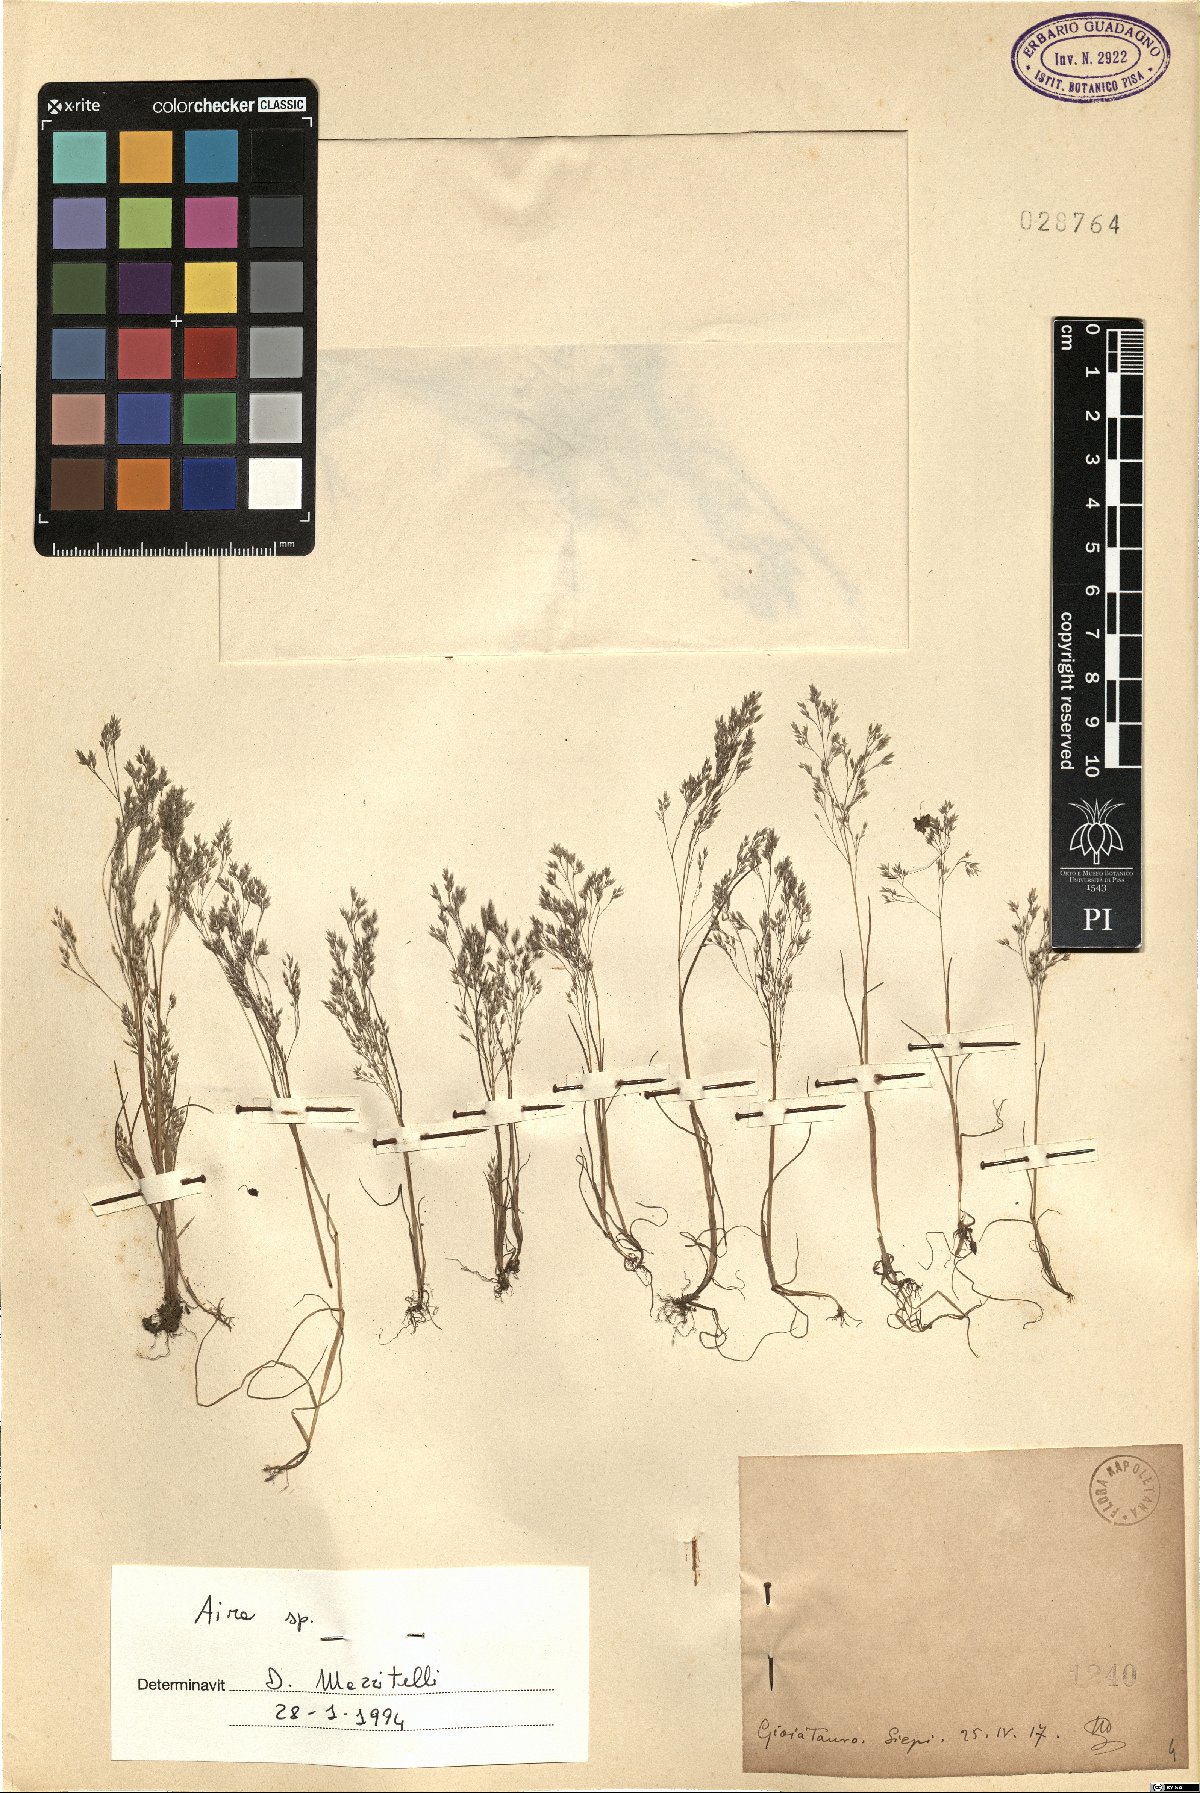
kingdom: Plantae
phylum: Tracheophyta
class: Liliopsida
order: Poales
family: Poaceae
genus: Aira
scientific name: Aira
